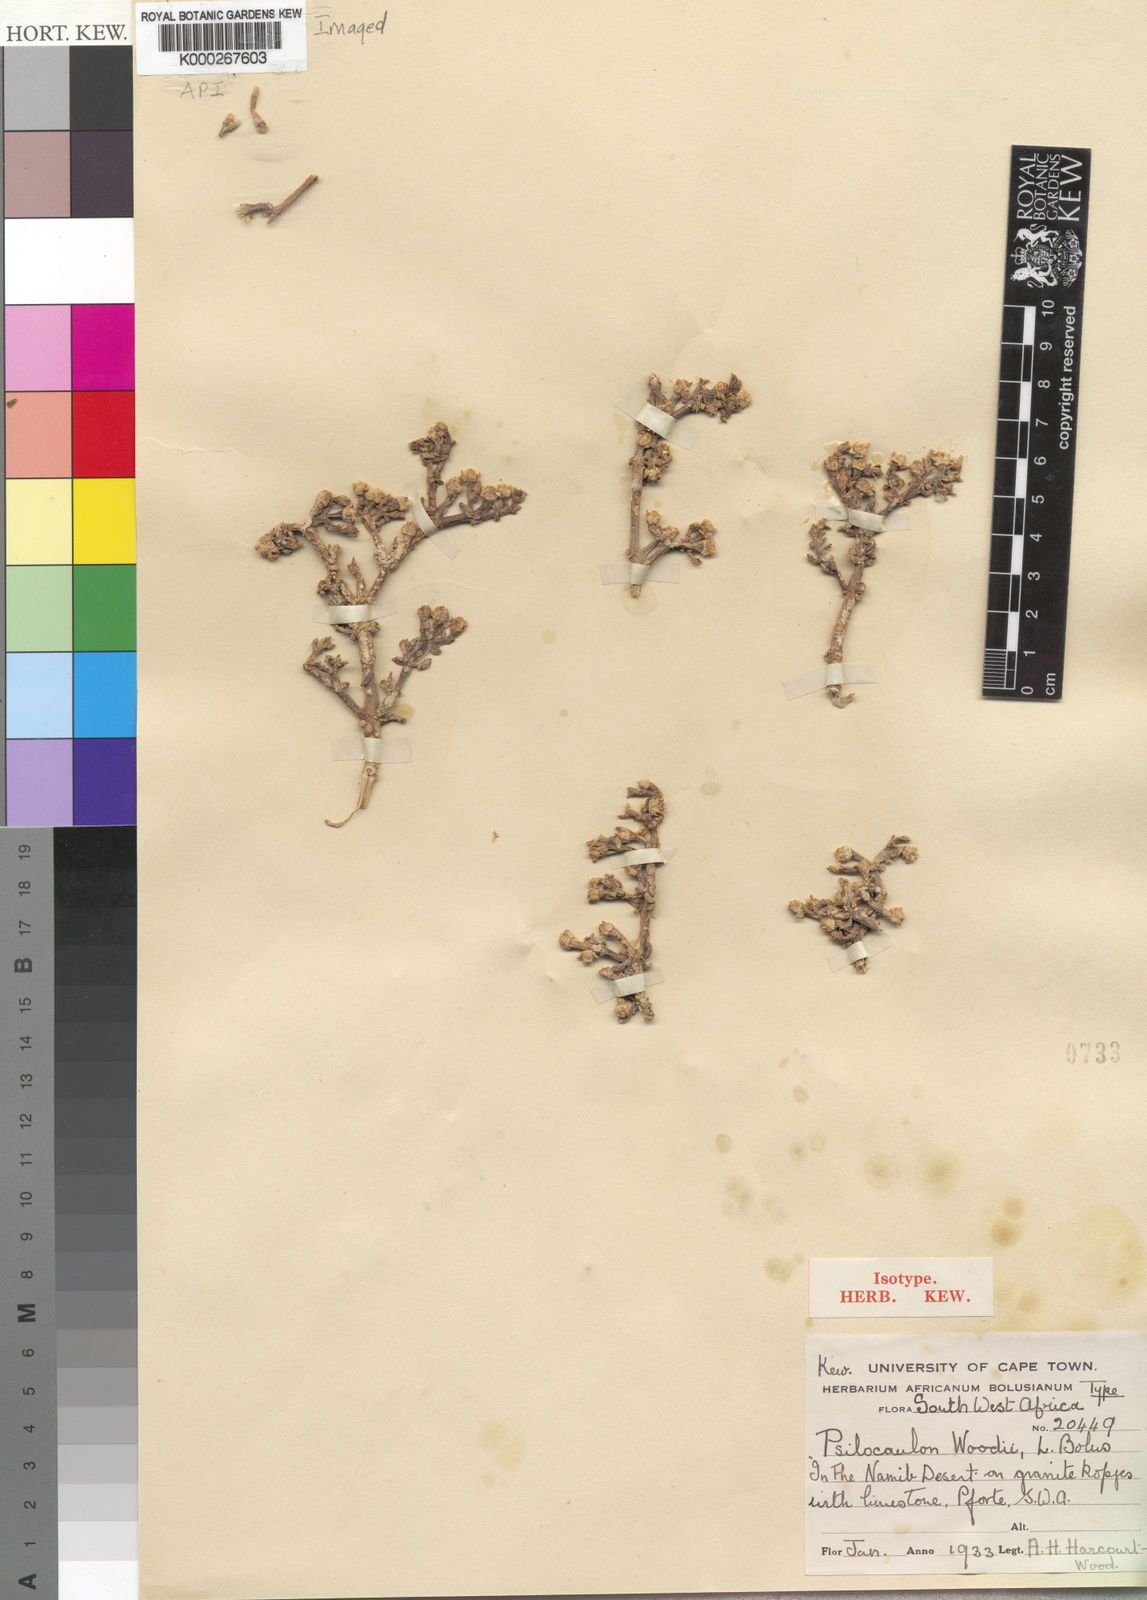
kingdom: Plantae
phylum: Tracheophyta
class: Magnoliopsida
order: Caryophyllales
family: Aizoaceae
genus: Mesembryanthemum
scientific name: Mesembryanthemum salicornioides
